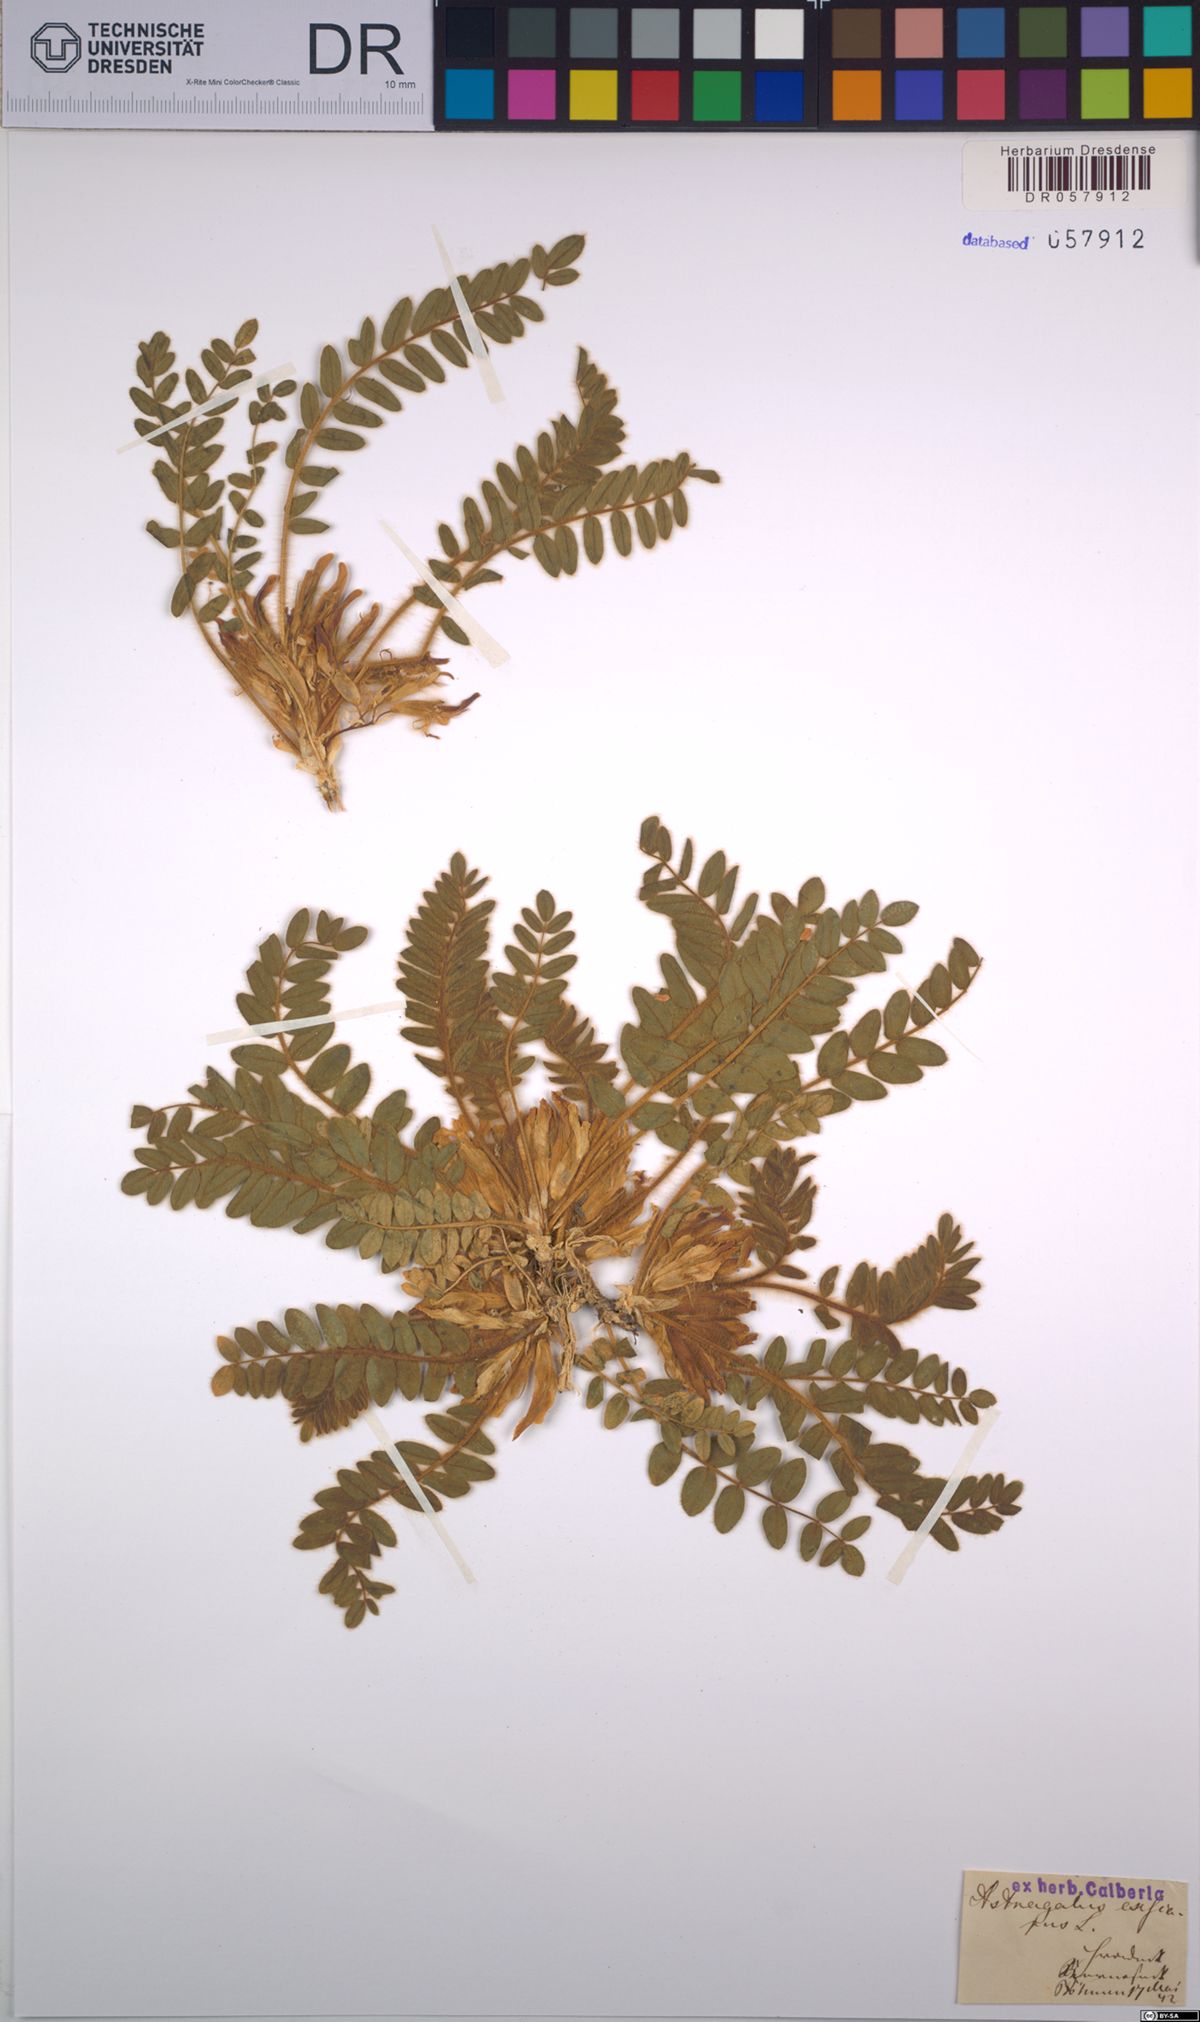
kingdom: Plantae
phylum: Tracheophyta
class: Magnoliopsida
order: Fabales
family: Fabaceae
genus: Astragalus
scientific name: Astragalus exscapus
